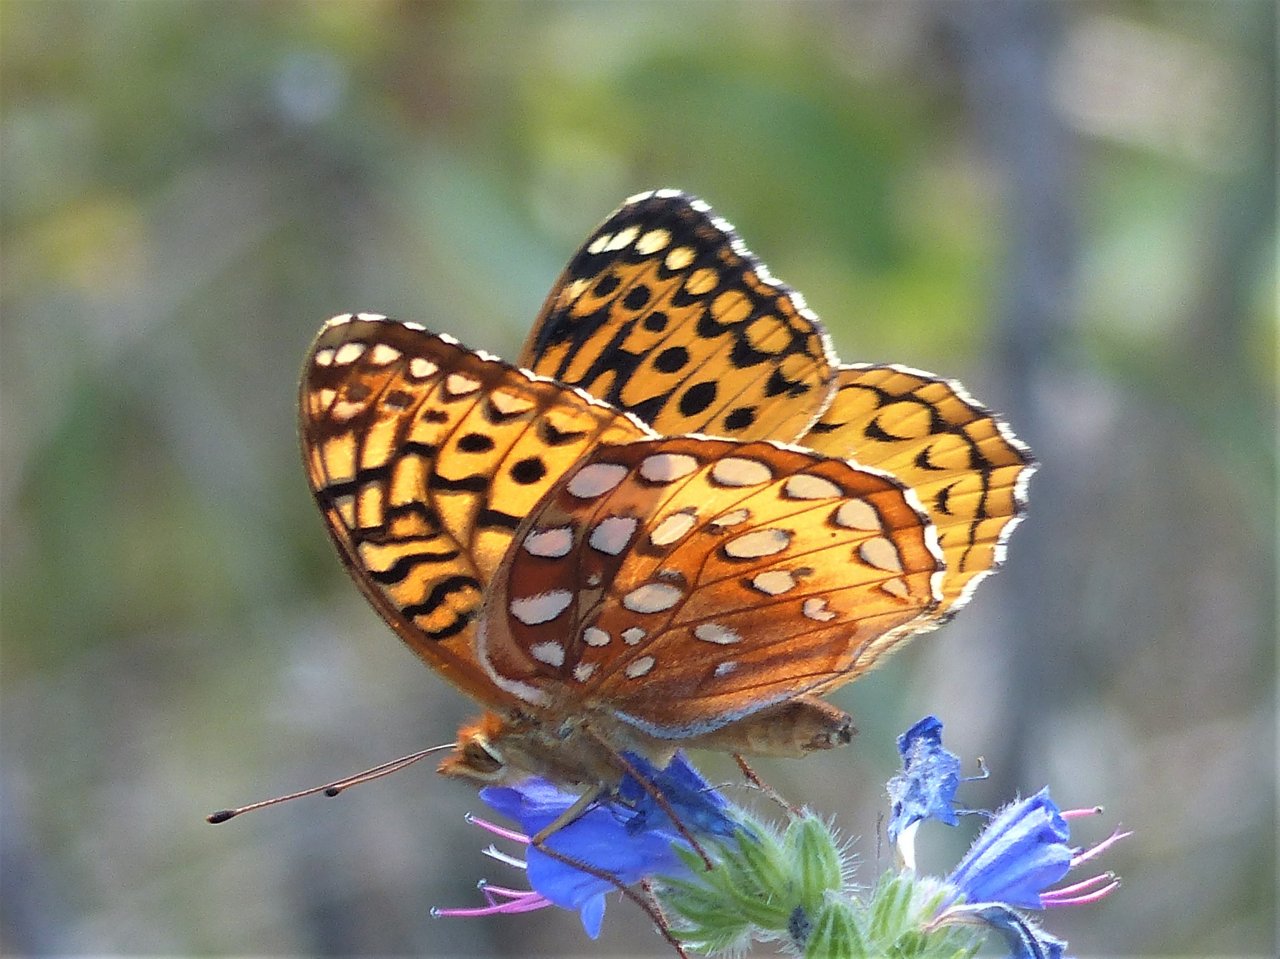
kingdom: Animalia
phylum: Arthropoda
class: Insecta
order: Lepidoptera
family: Nymphalidae
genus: Speyeria
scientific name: Speyeria cybele
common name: Great Spangled Fritillary
